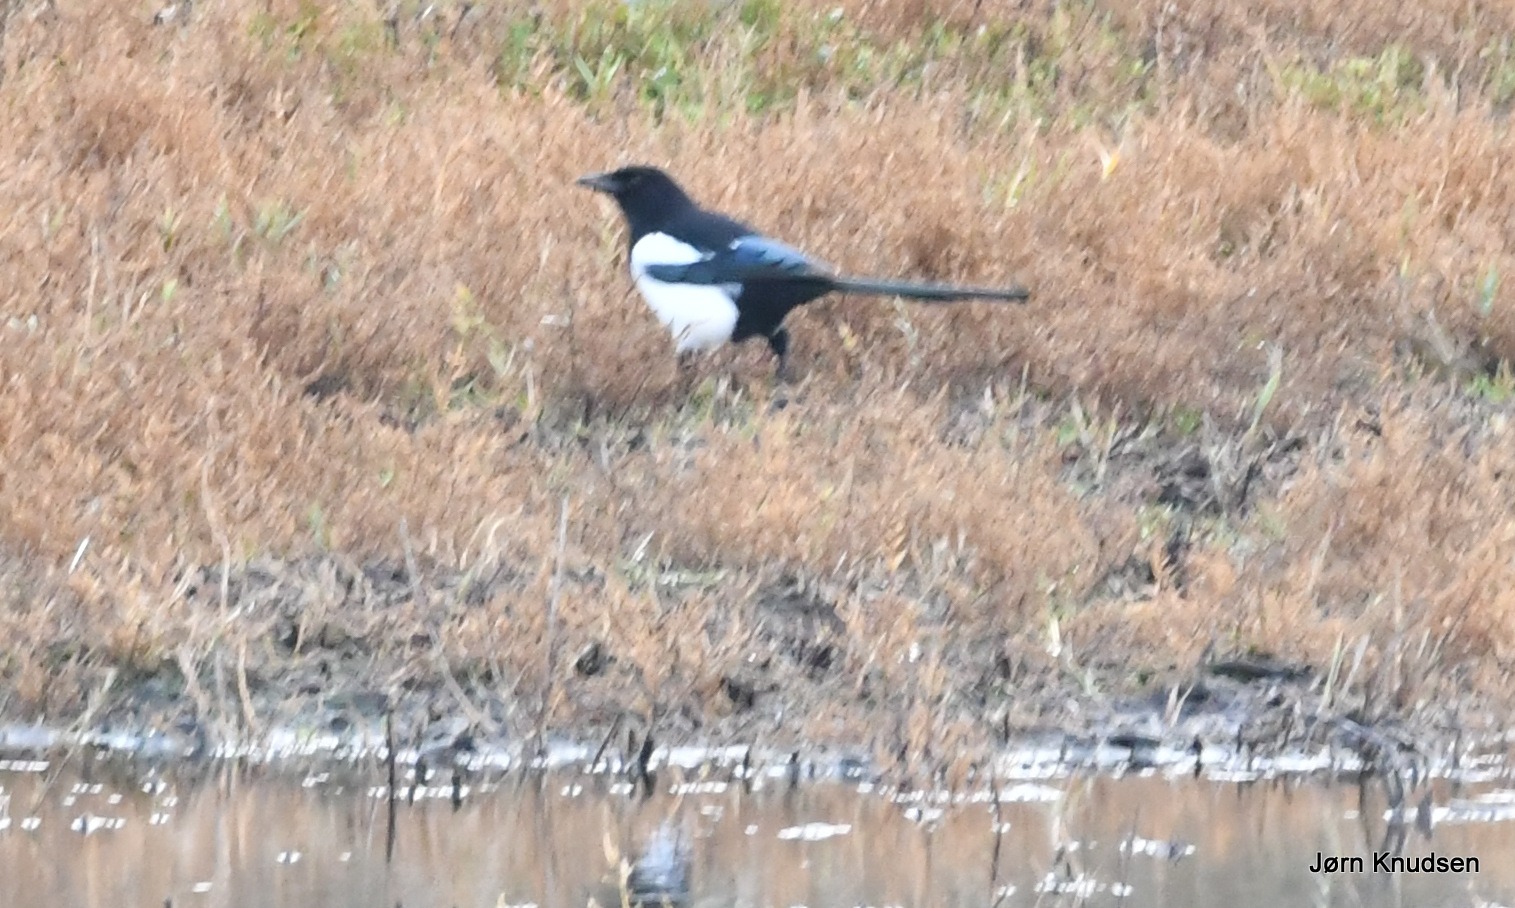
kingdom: Animalia
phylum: Chordata
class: Aves
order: Passeriformes
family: Corvidae
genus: Pica
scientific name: Pica pica
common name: Husskade
